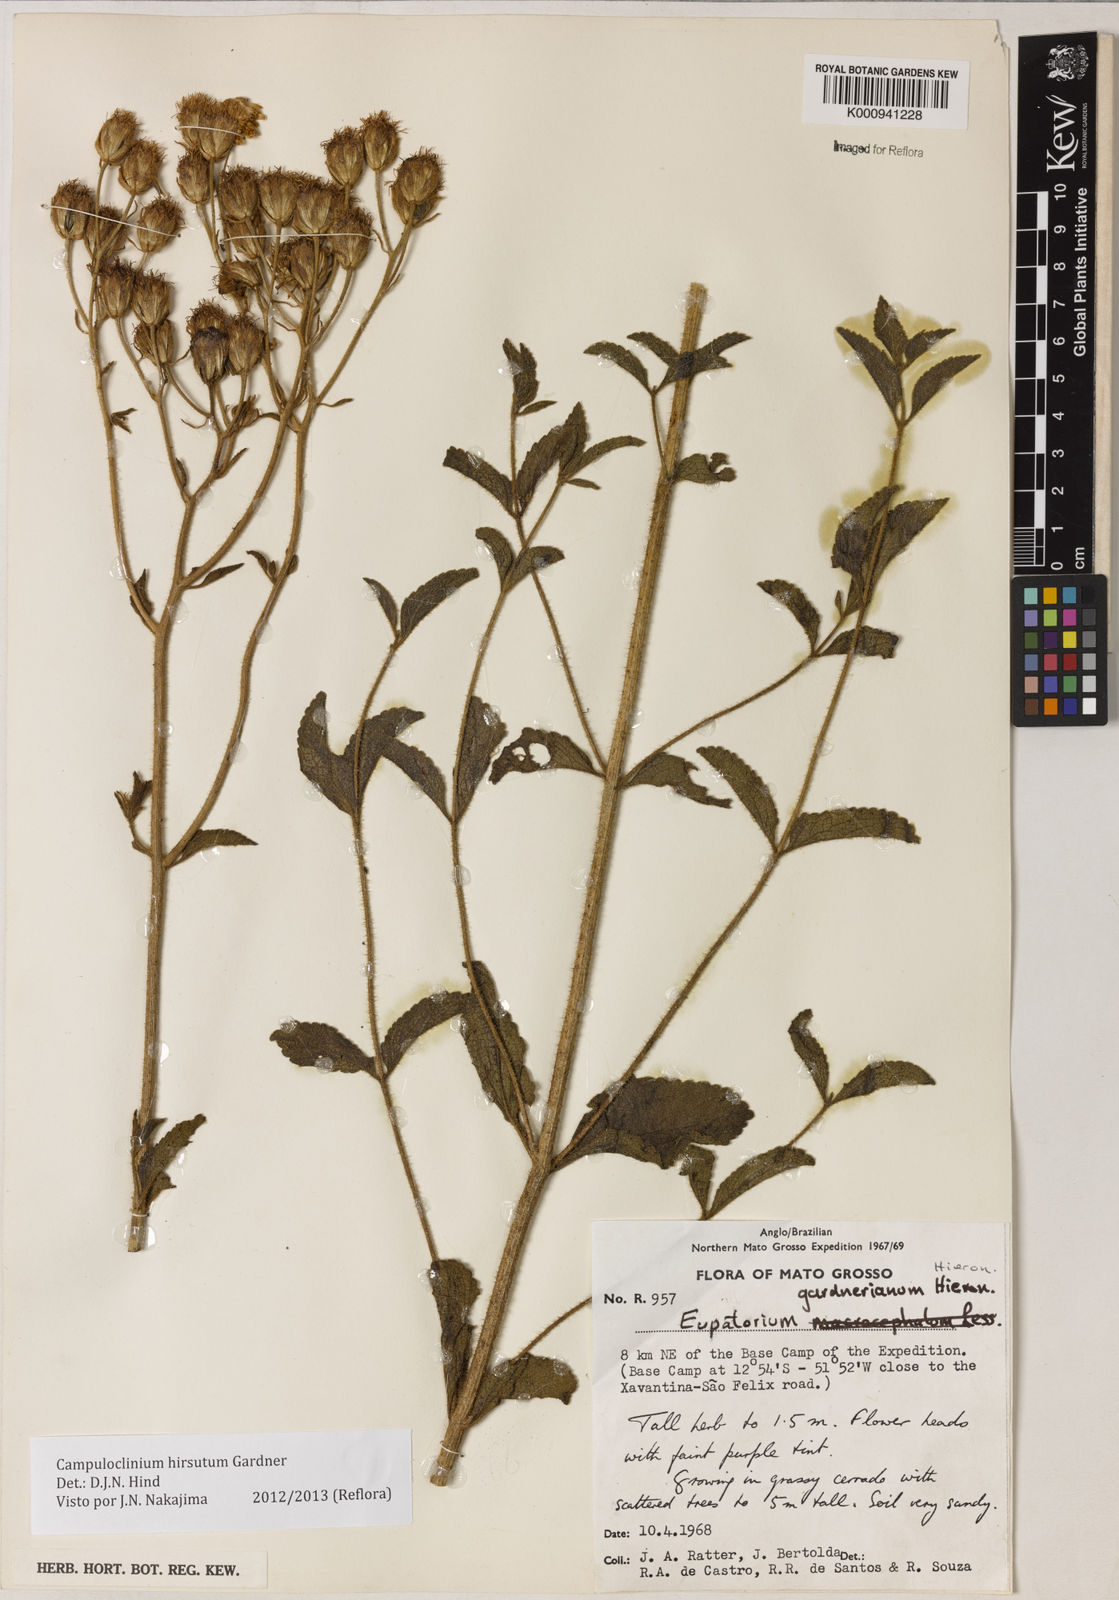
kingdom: Plantae
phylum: Tracheophyta
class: Magnoliopsida
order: Asterales
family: Asteraceae
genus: Campuloclinium
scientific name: Campuloclinium hirsutum
